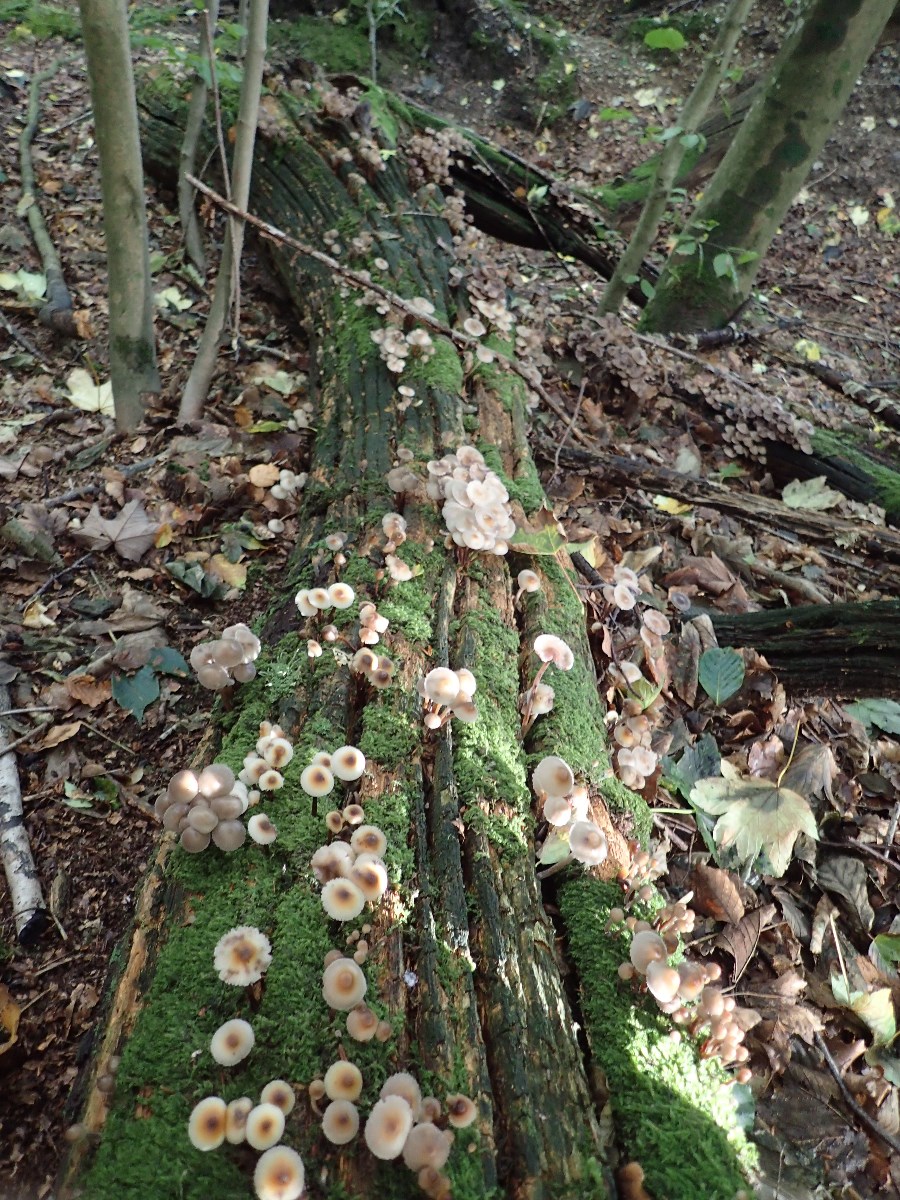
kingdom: Fungi
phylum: Basidiomycota
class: Agaricomycetes
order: Agaricales
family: Mycenaceae
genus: Mycena
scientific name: Mycena inclinata
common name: nikkende huesvamp
